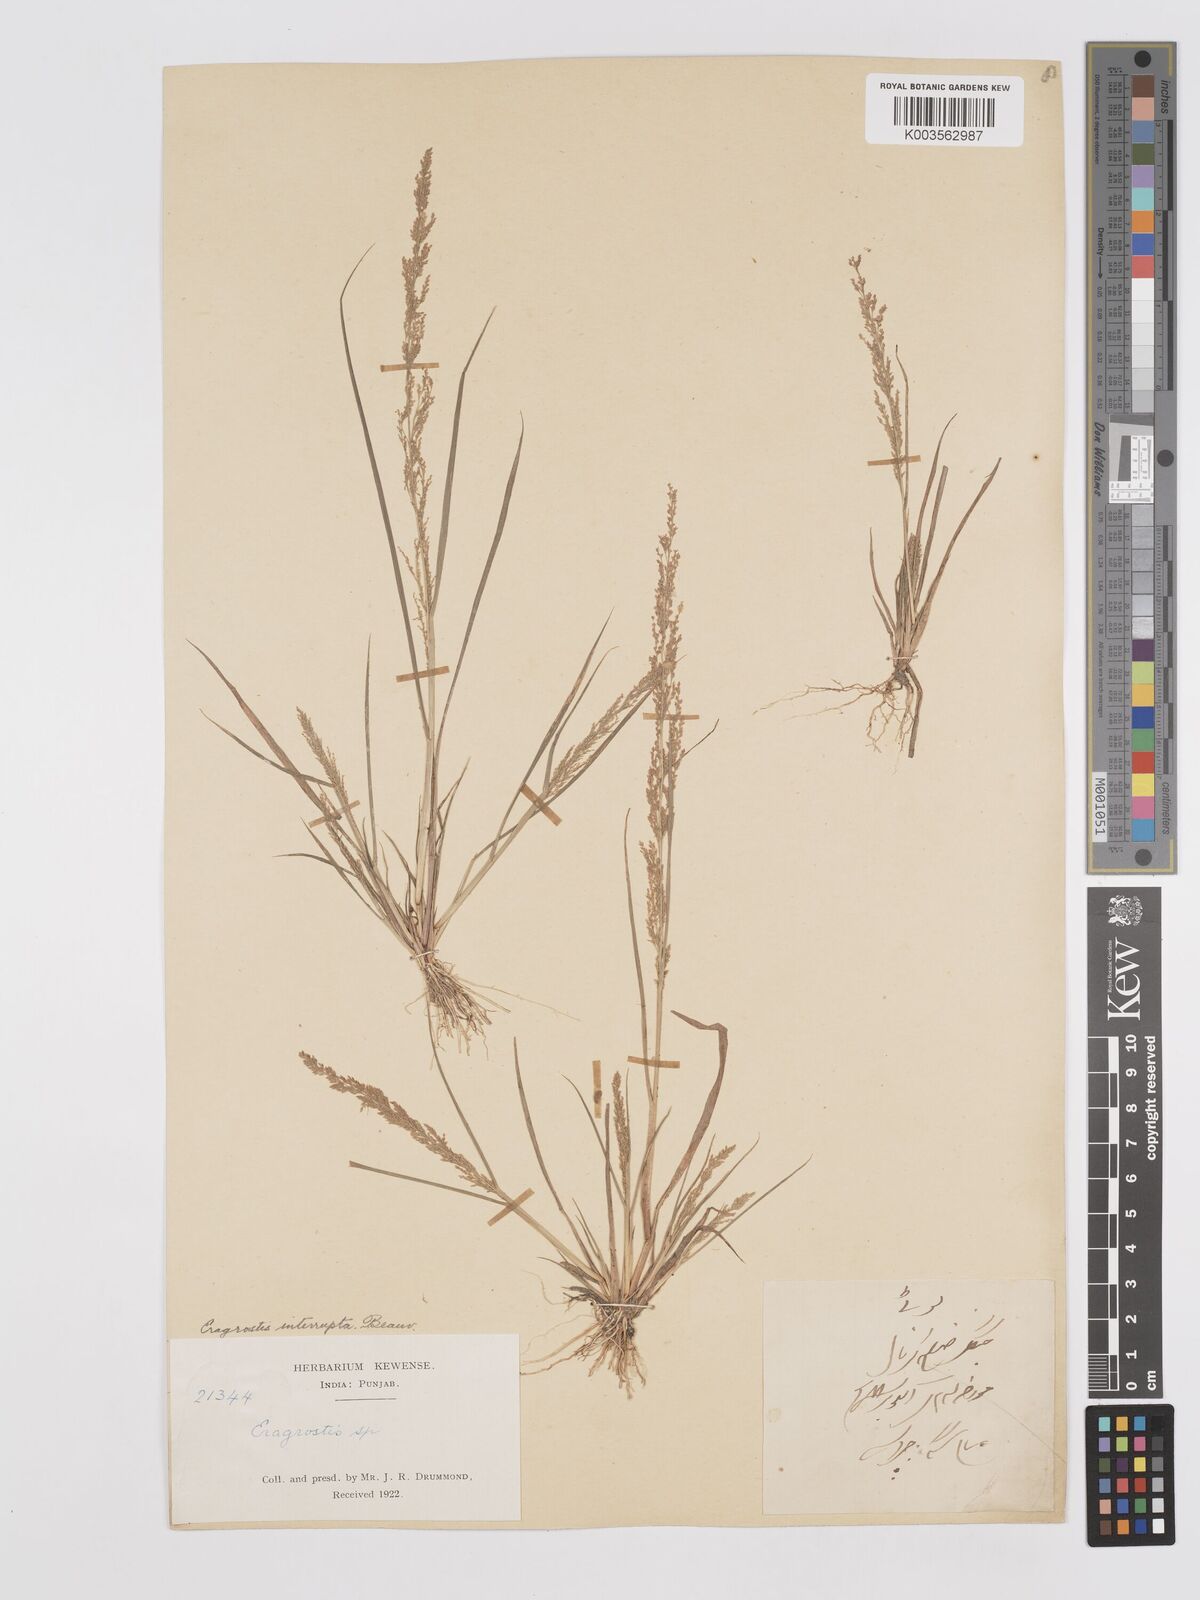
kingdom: Plantae
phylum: Tracheophyta
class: Liliopsida
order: Poales
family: Poaceae
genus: Eragrostis
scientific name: Eragrostis japonica
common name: Pond lovegrass
